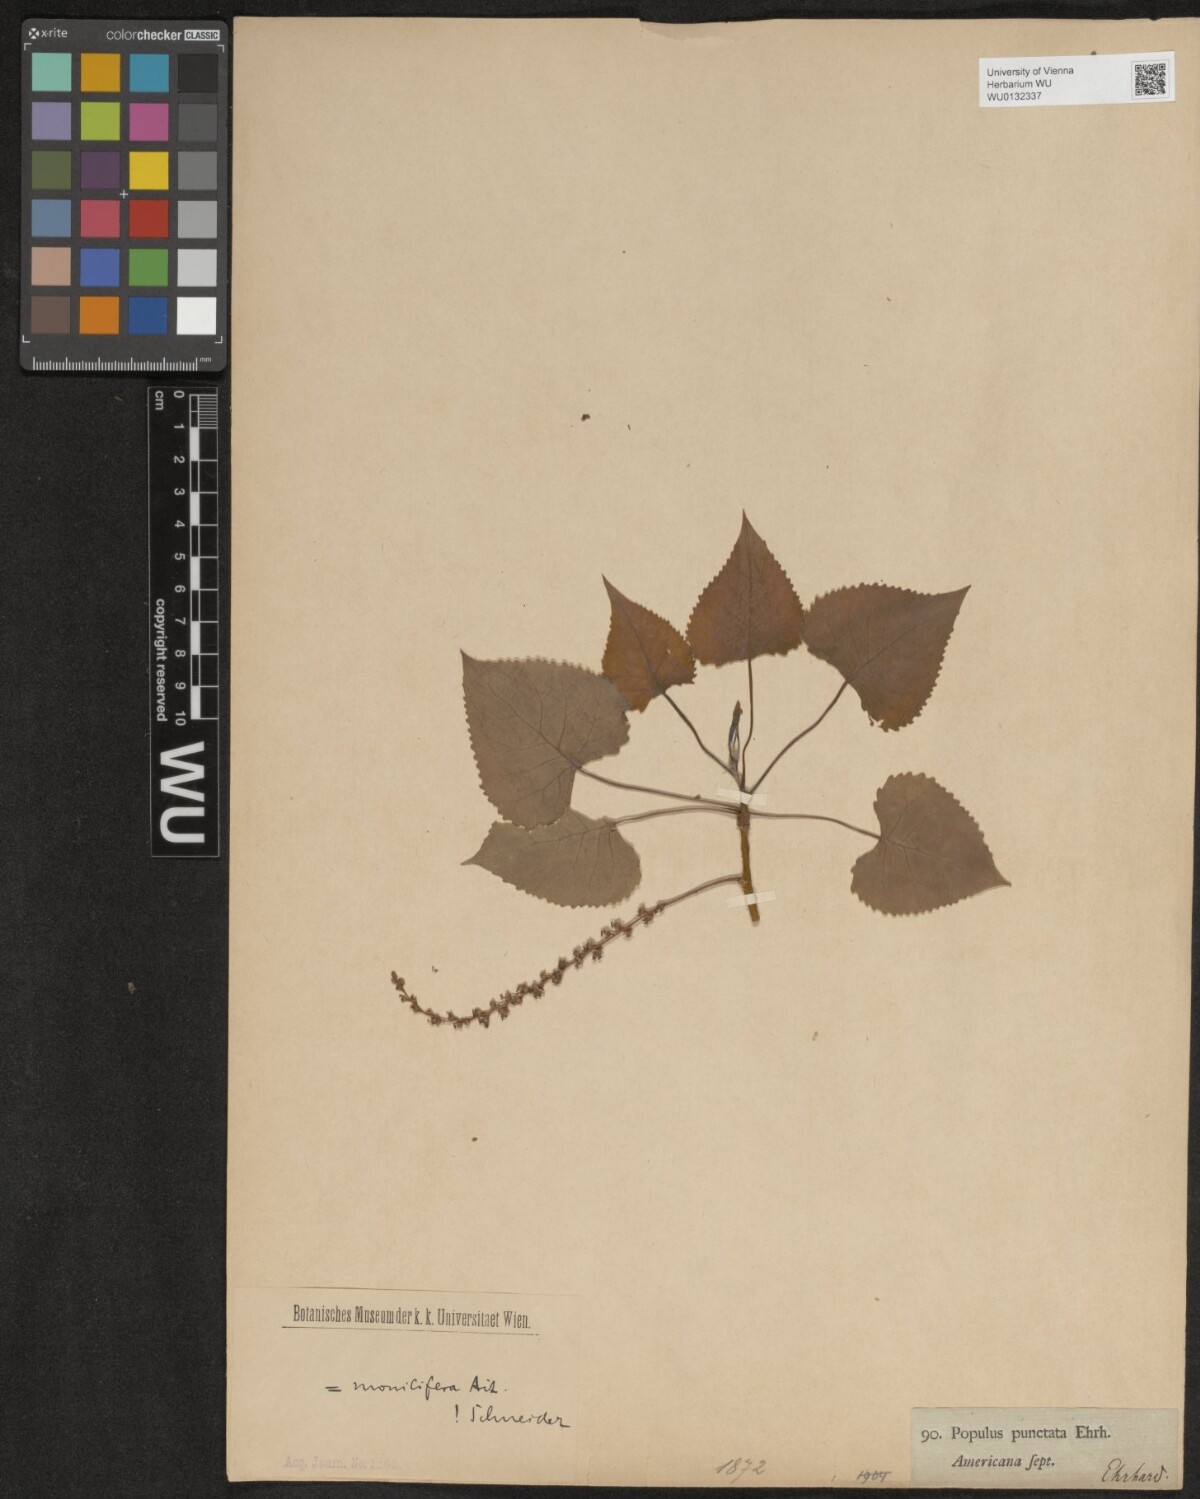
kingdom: Plantae
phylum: Tracheophyta
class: Magnoliopsida
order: Malpighiales
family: Salicaceae
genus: Populus
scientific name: Populus deltoides
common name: Eastern cottonwood
